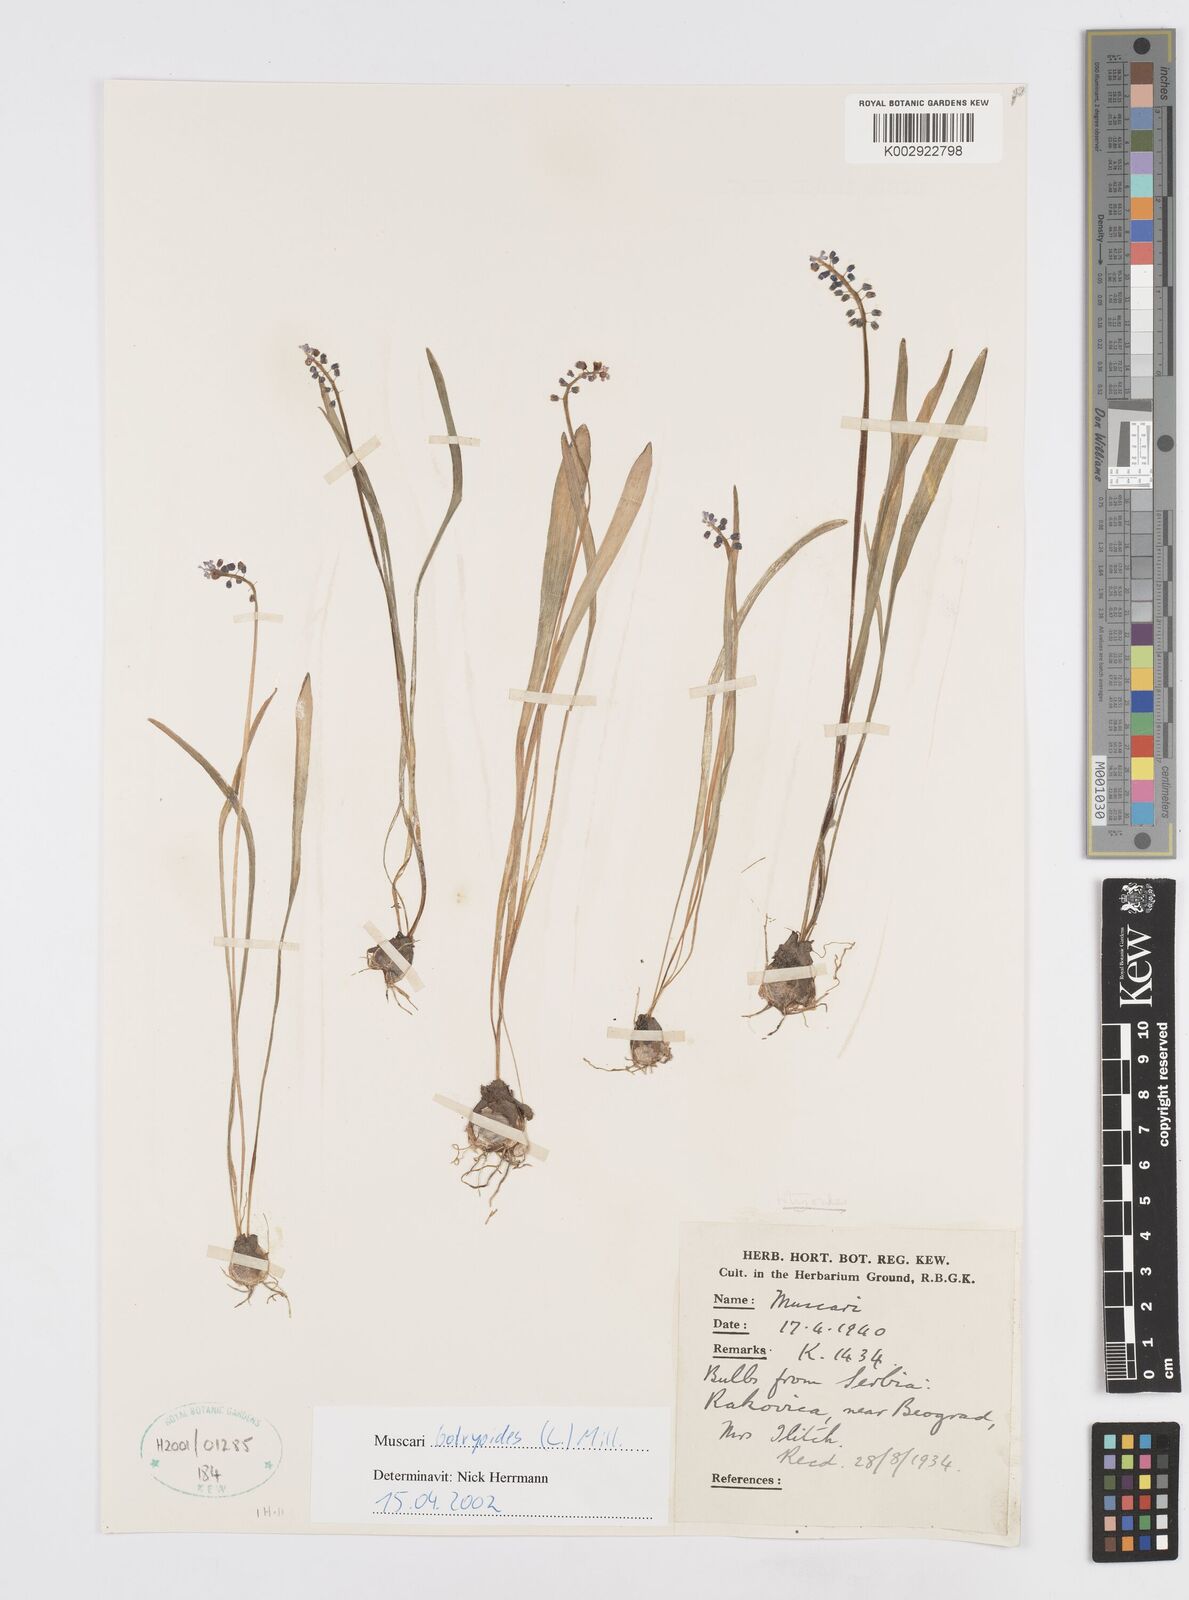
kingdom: Plantae
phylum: Tracheophyta
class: Liliopsida
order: Asparagales
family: Asparagaceae
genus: Muscari
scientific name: Muscari botryoides
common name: Compact grape-hyacinth
